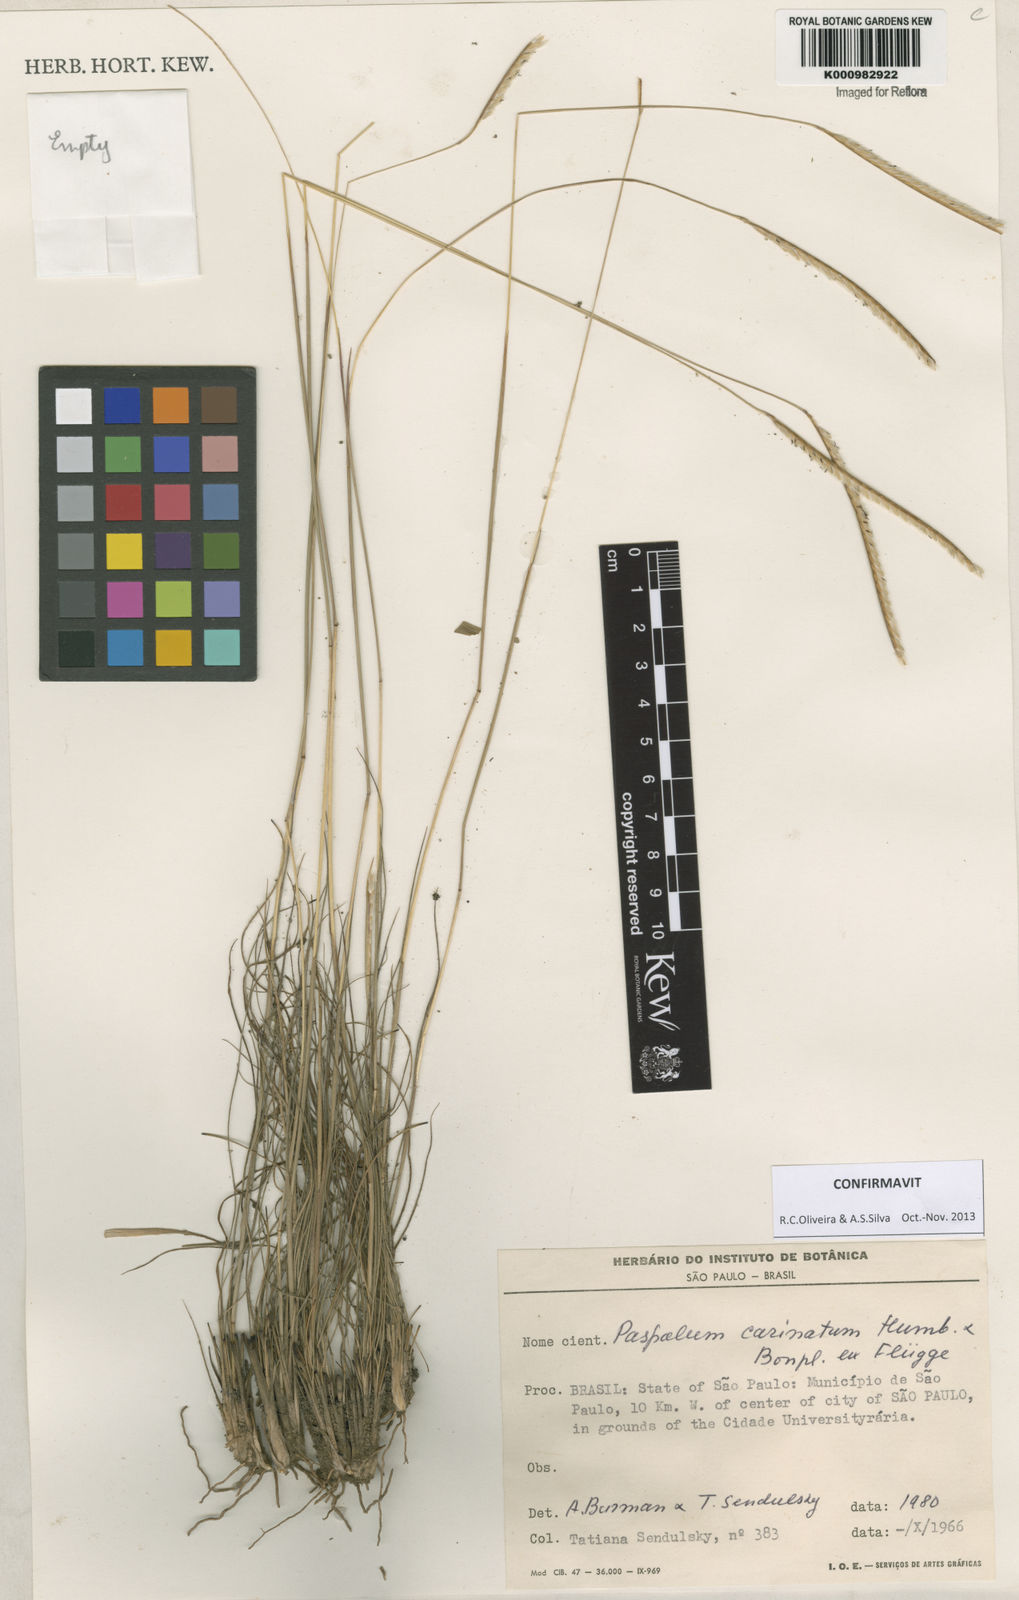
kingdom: Plantae
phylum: Tracheophyta
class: Liliopsida
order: Poales
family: Poaceae
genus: Paspalum
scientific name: Paspalum
